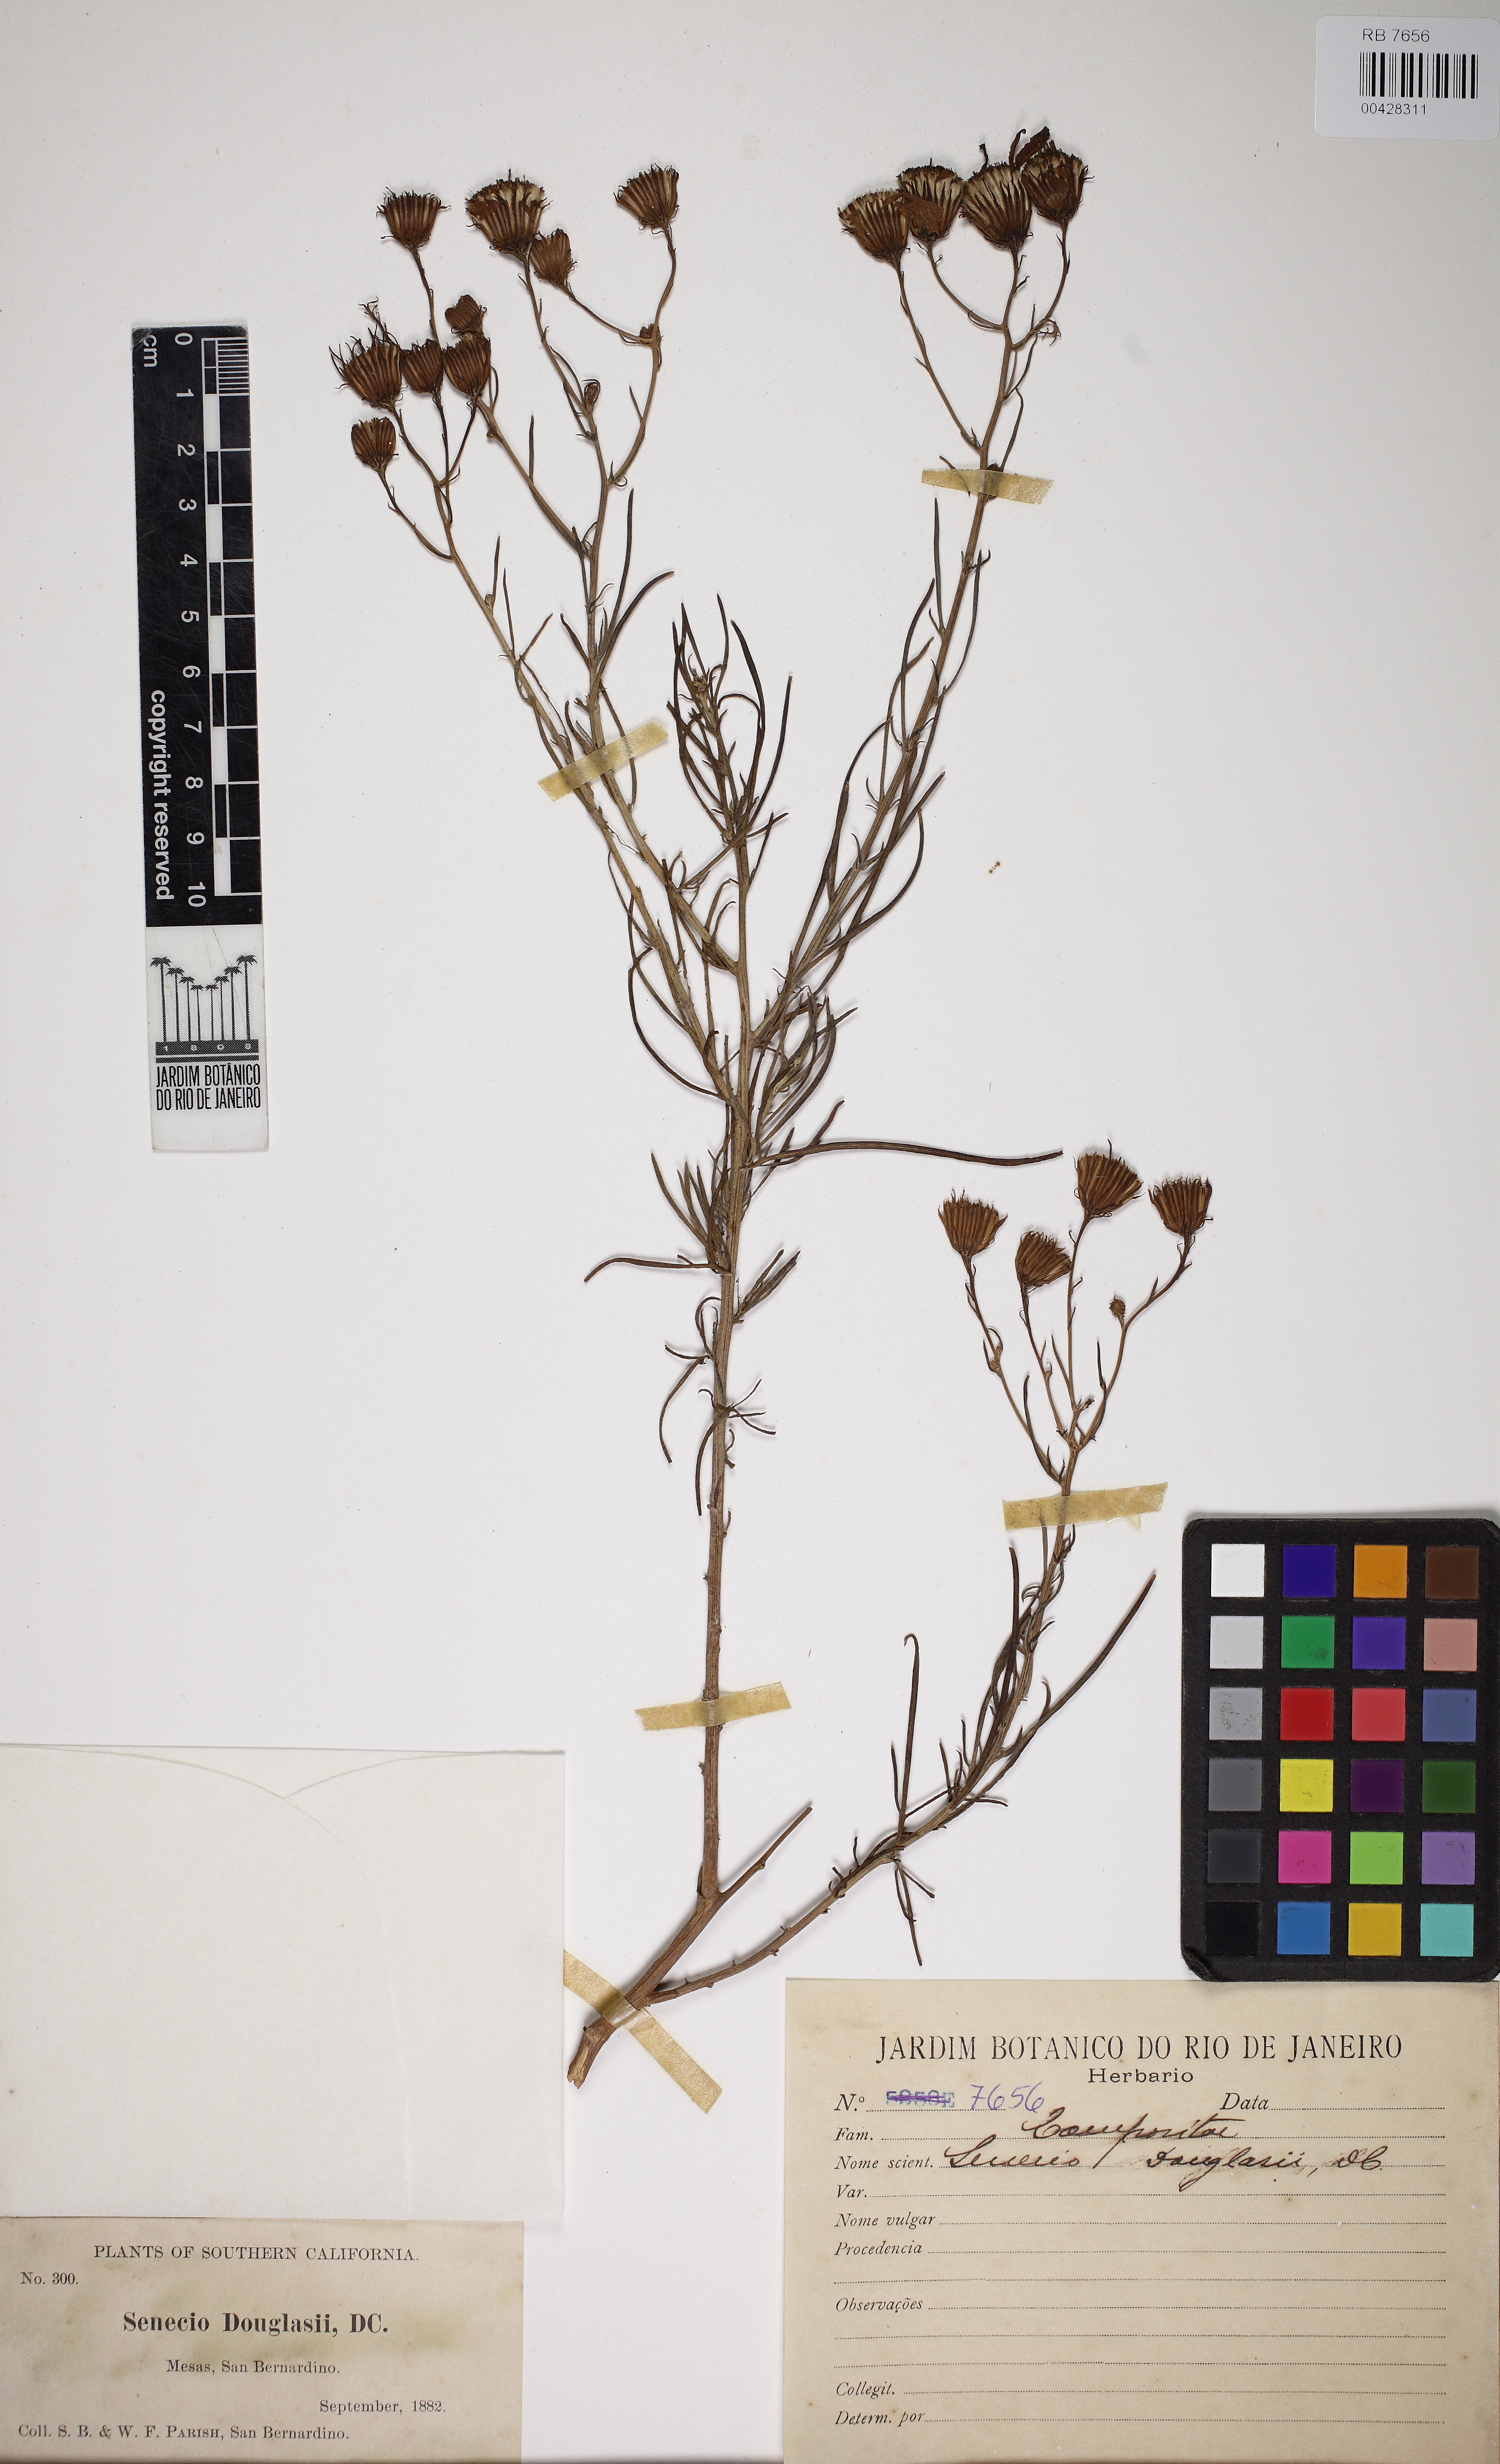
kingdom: Plantae
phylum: Tracheophyta
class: Magnoliopsida
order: Asterales
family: Asteraceae
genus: Senecio
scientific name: Senecio flaccidus
